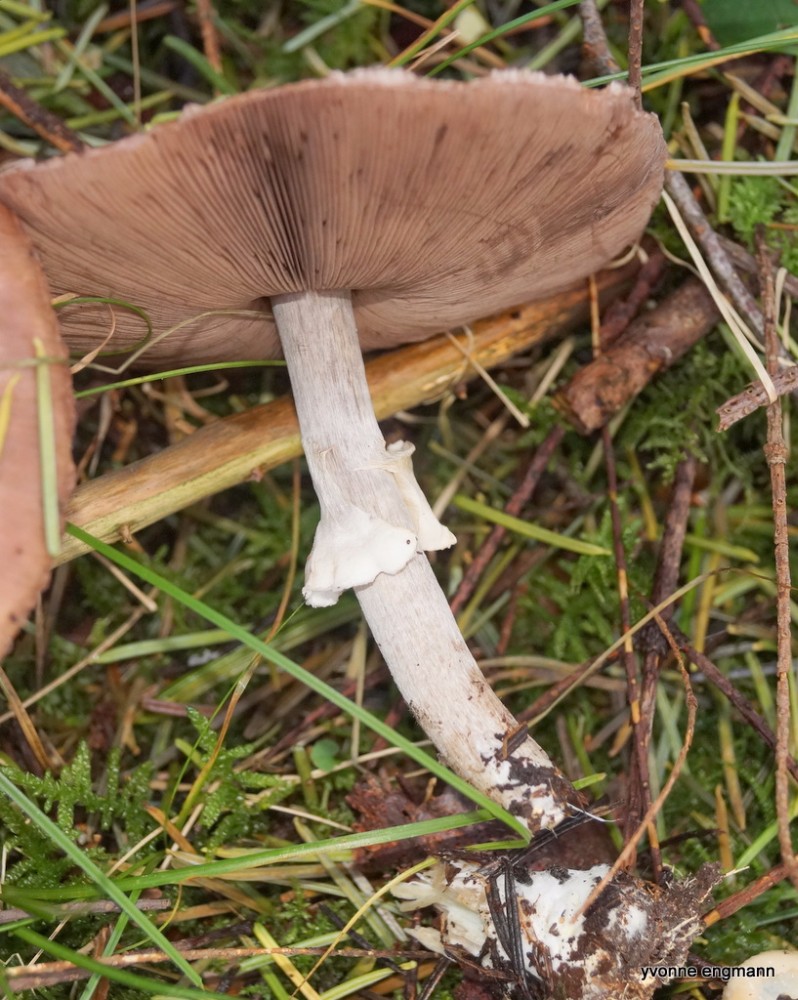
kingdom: Fungi
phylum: Basidiomycota
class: Agaricomycetes
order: Agaricales
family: Agaricaceae
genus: Agaricus
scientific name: Agaricus
